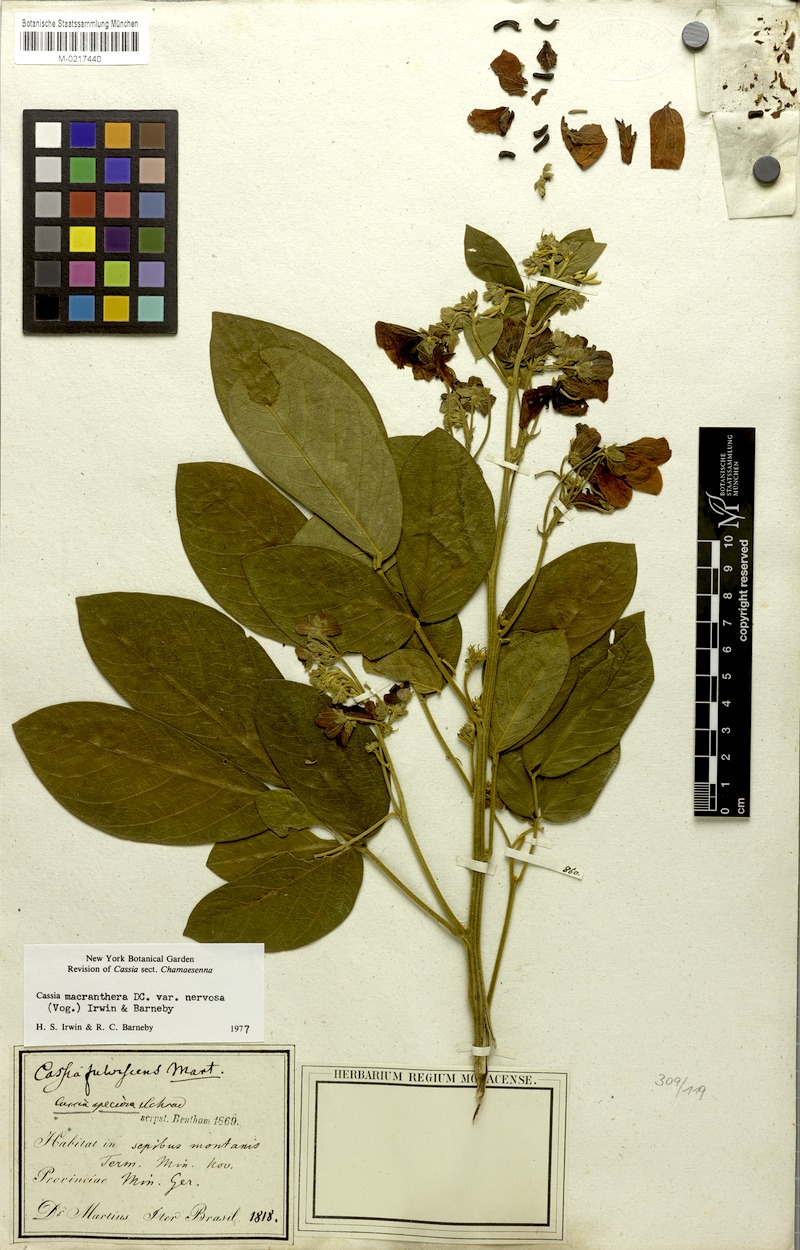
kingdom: Plantae
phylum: Tracheophyta
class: Magnoliopsida
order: Fabales
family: Fabaceae
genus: Cassia
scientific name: Cassia
